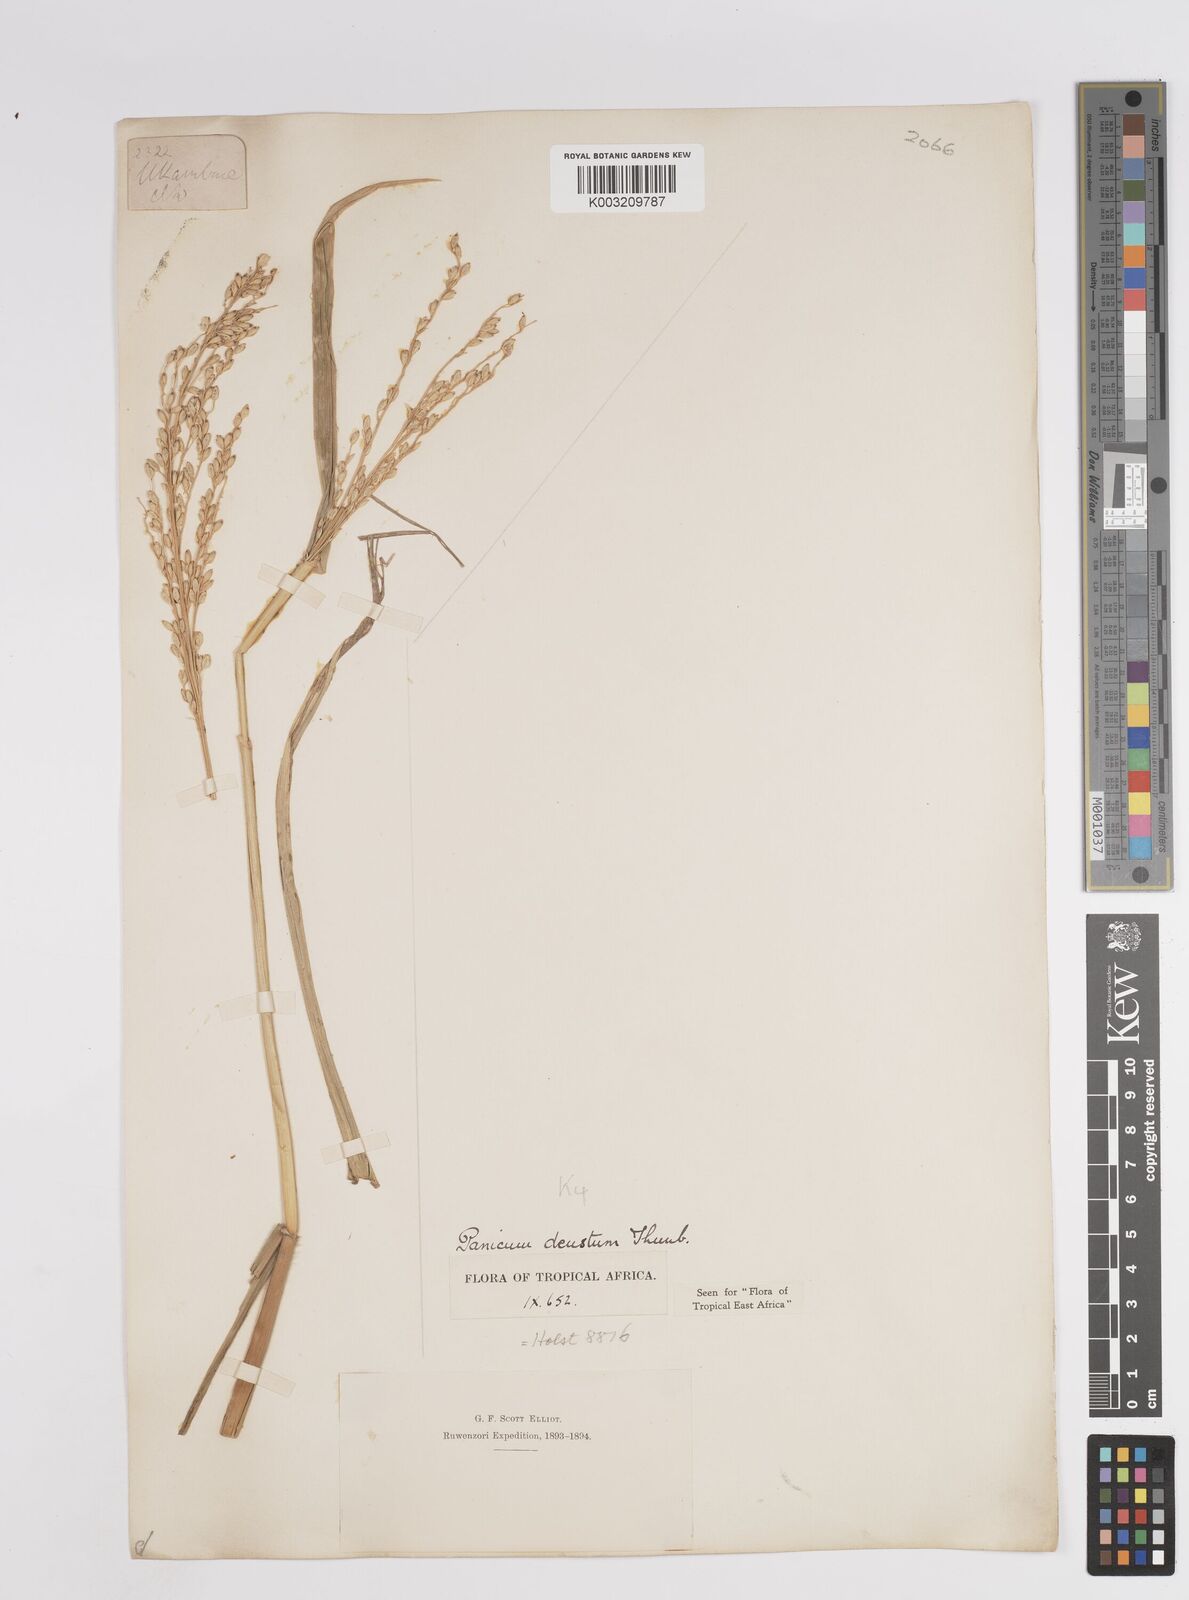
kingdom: Plantae
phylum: Tracheophyta
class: Liliopsida
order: Poales
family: Poaceae
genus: Panicum
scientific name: Panicum deustum
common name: Reed panicum
